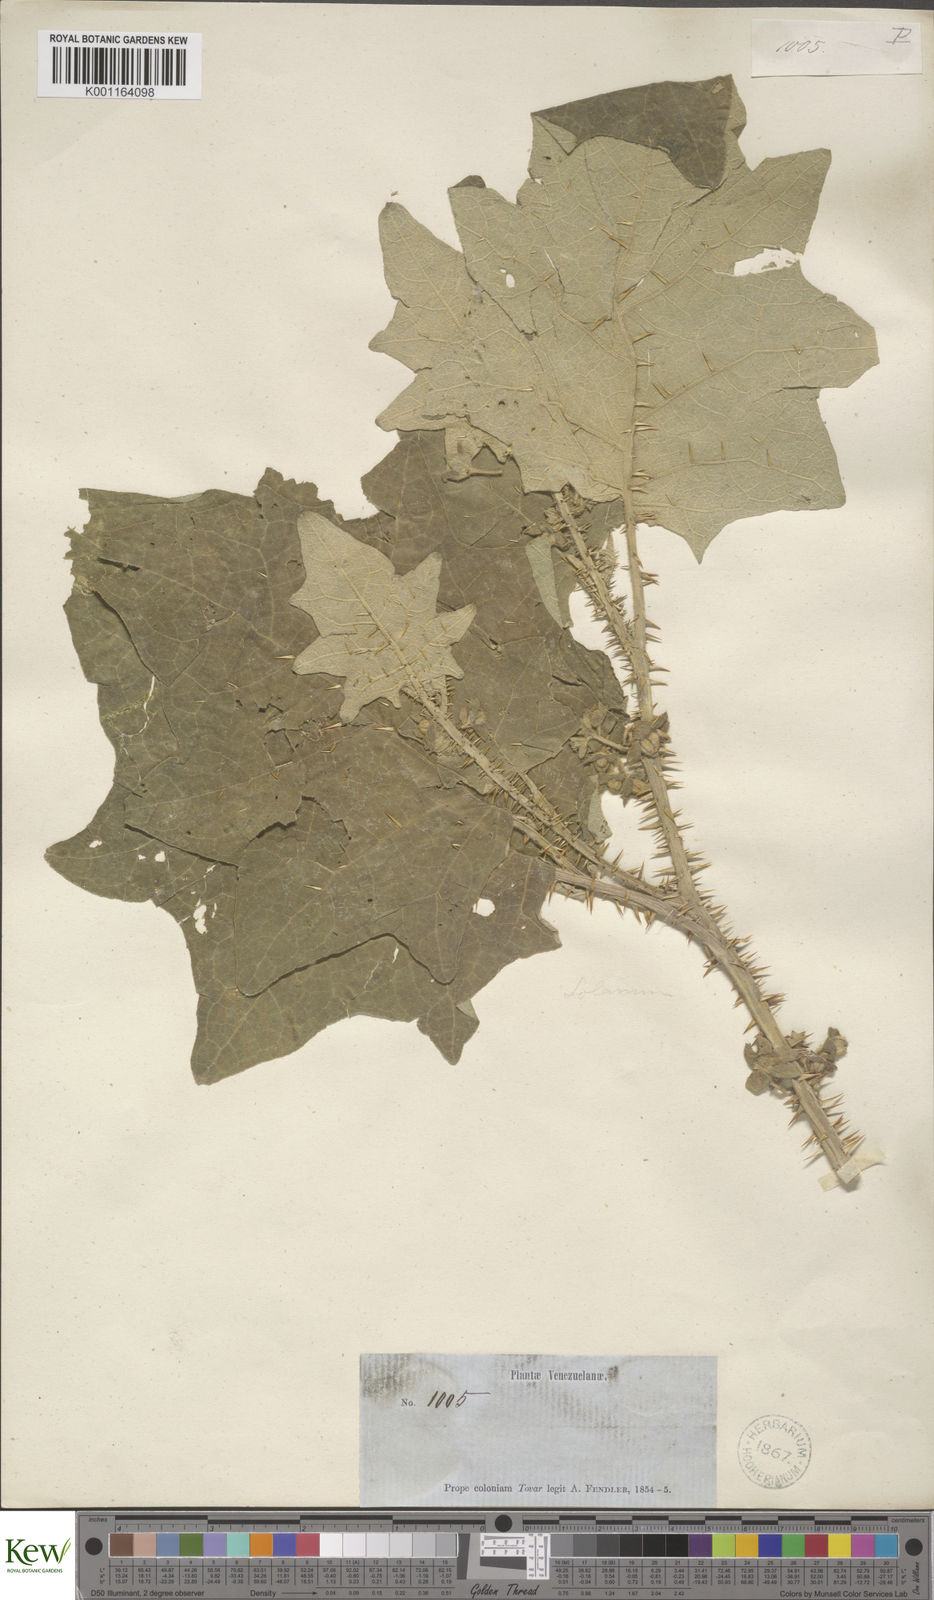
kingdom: Plantae
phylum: Tracheophyta
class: Magnoliopsida
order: Solanales
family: Solanaceae
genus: Solanum
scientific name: Solanum hirtum
